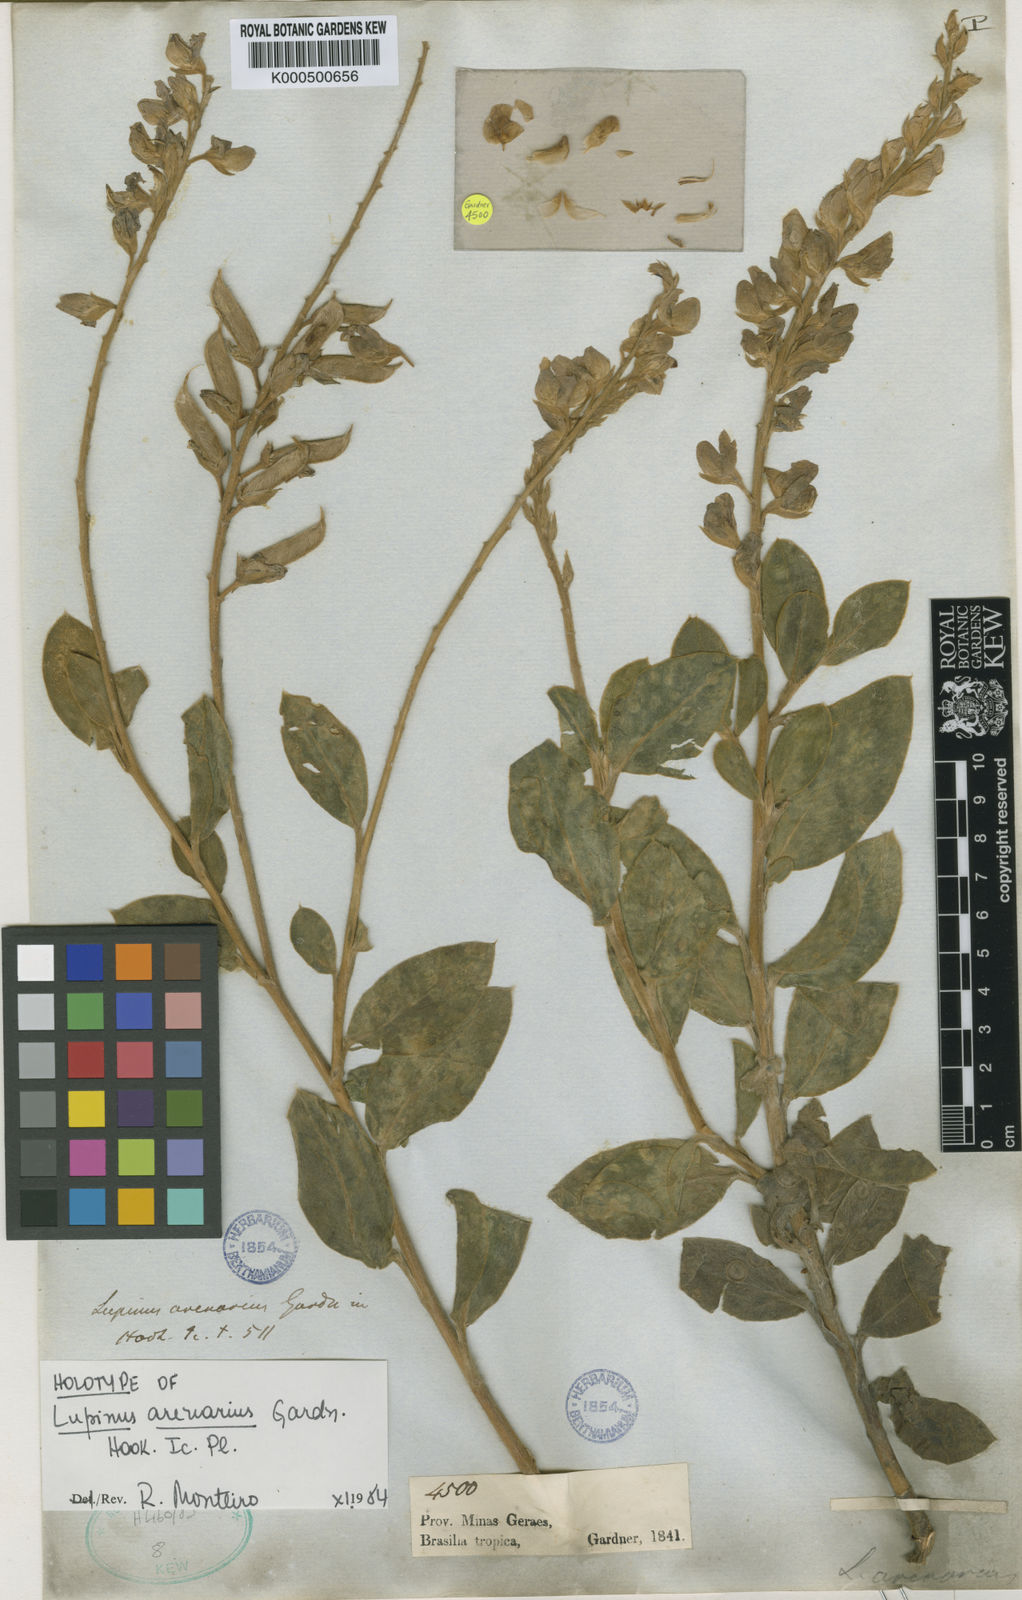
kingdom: Plantae
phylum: Tracheophyta
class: Magnoliopsida
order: Fabales
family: Fabaceae
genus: Lupinus
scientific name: Lupinus arenarius
